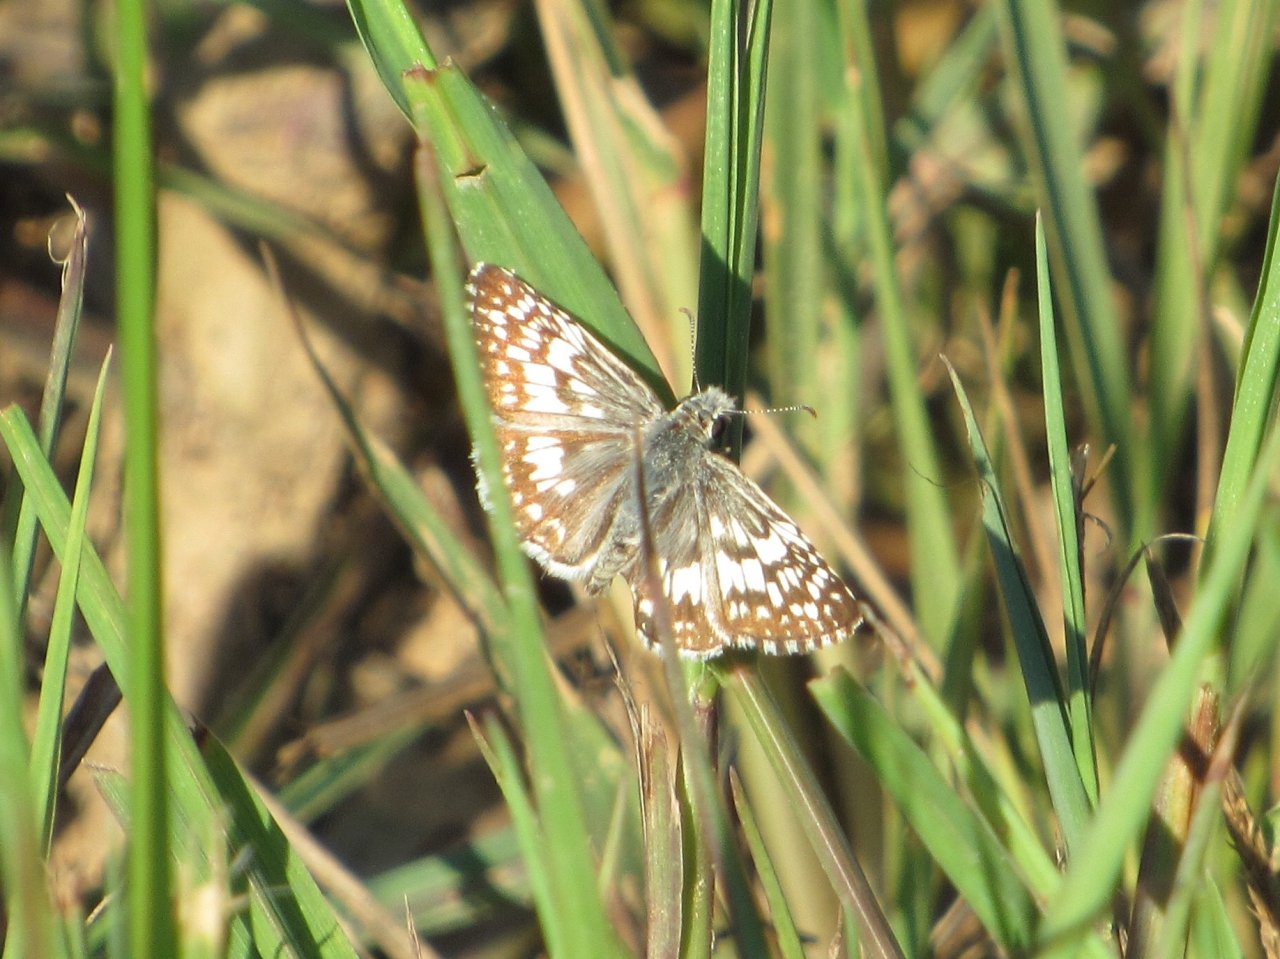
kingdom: Animalia
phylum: Arthropoda
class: Insecta
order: Lepidoptera
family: Hesperiidae
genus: Pyrgus
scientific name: Pyrgus communis
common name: Common Checkered-Skipper
